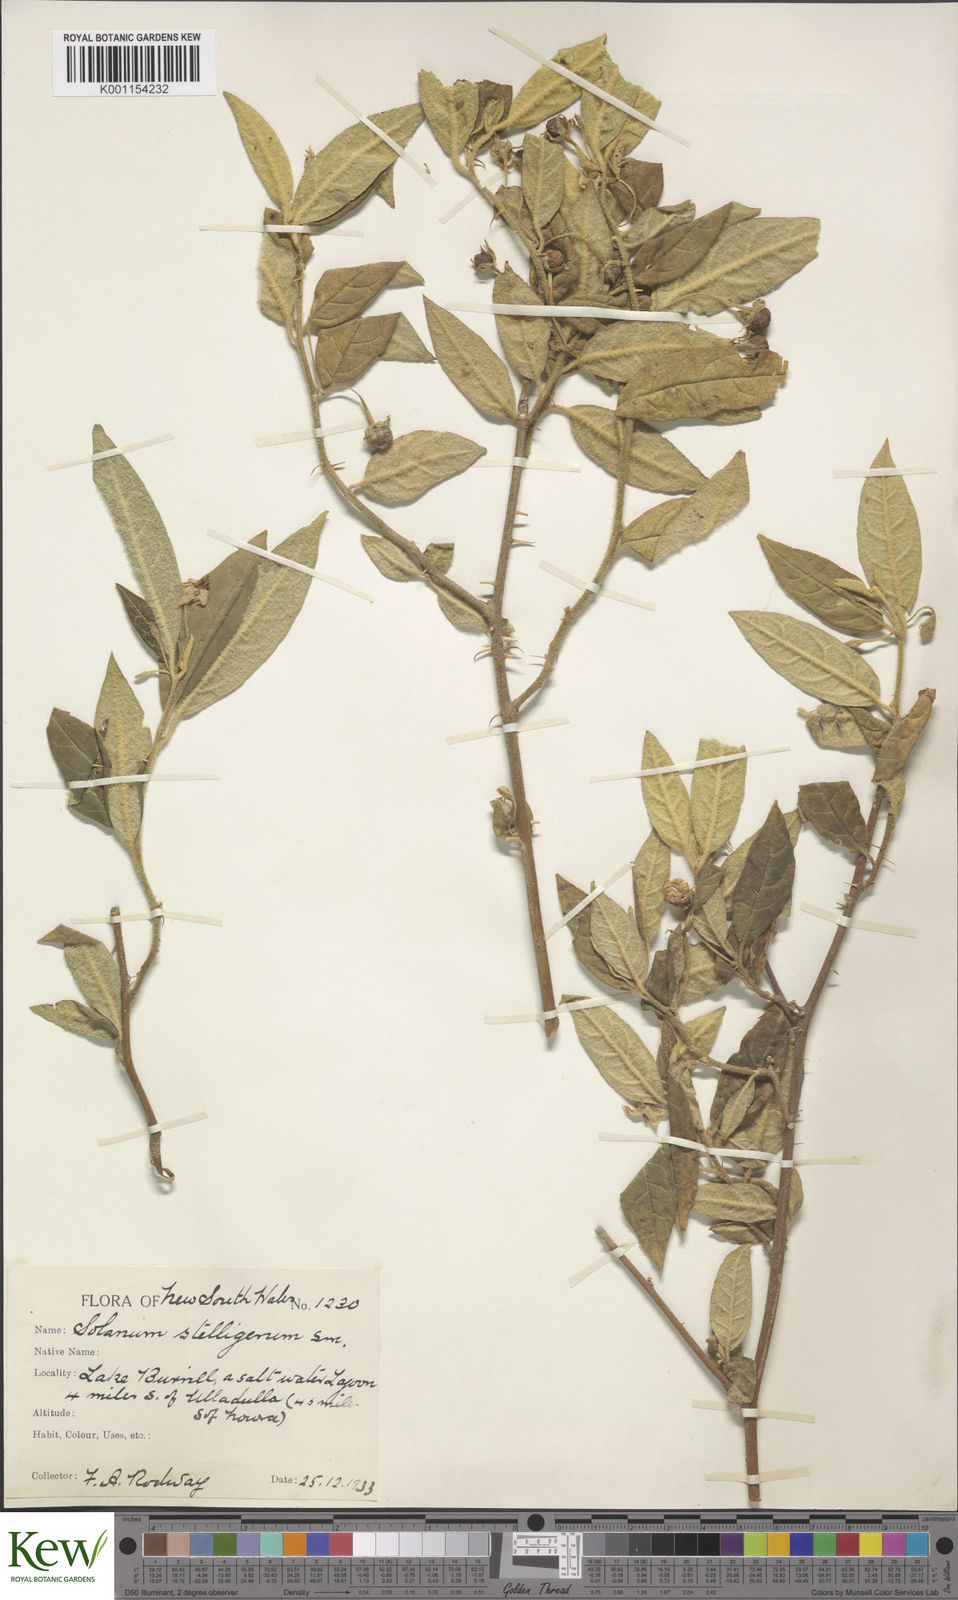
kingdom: Plantae
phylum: Tracheophyta
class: Magnoliopsida
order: Solanales
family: Solanaceae
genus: Solanum
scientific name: Solanum stelligerum
